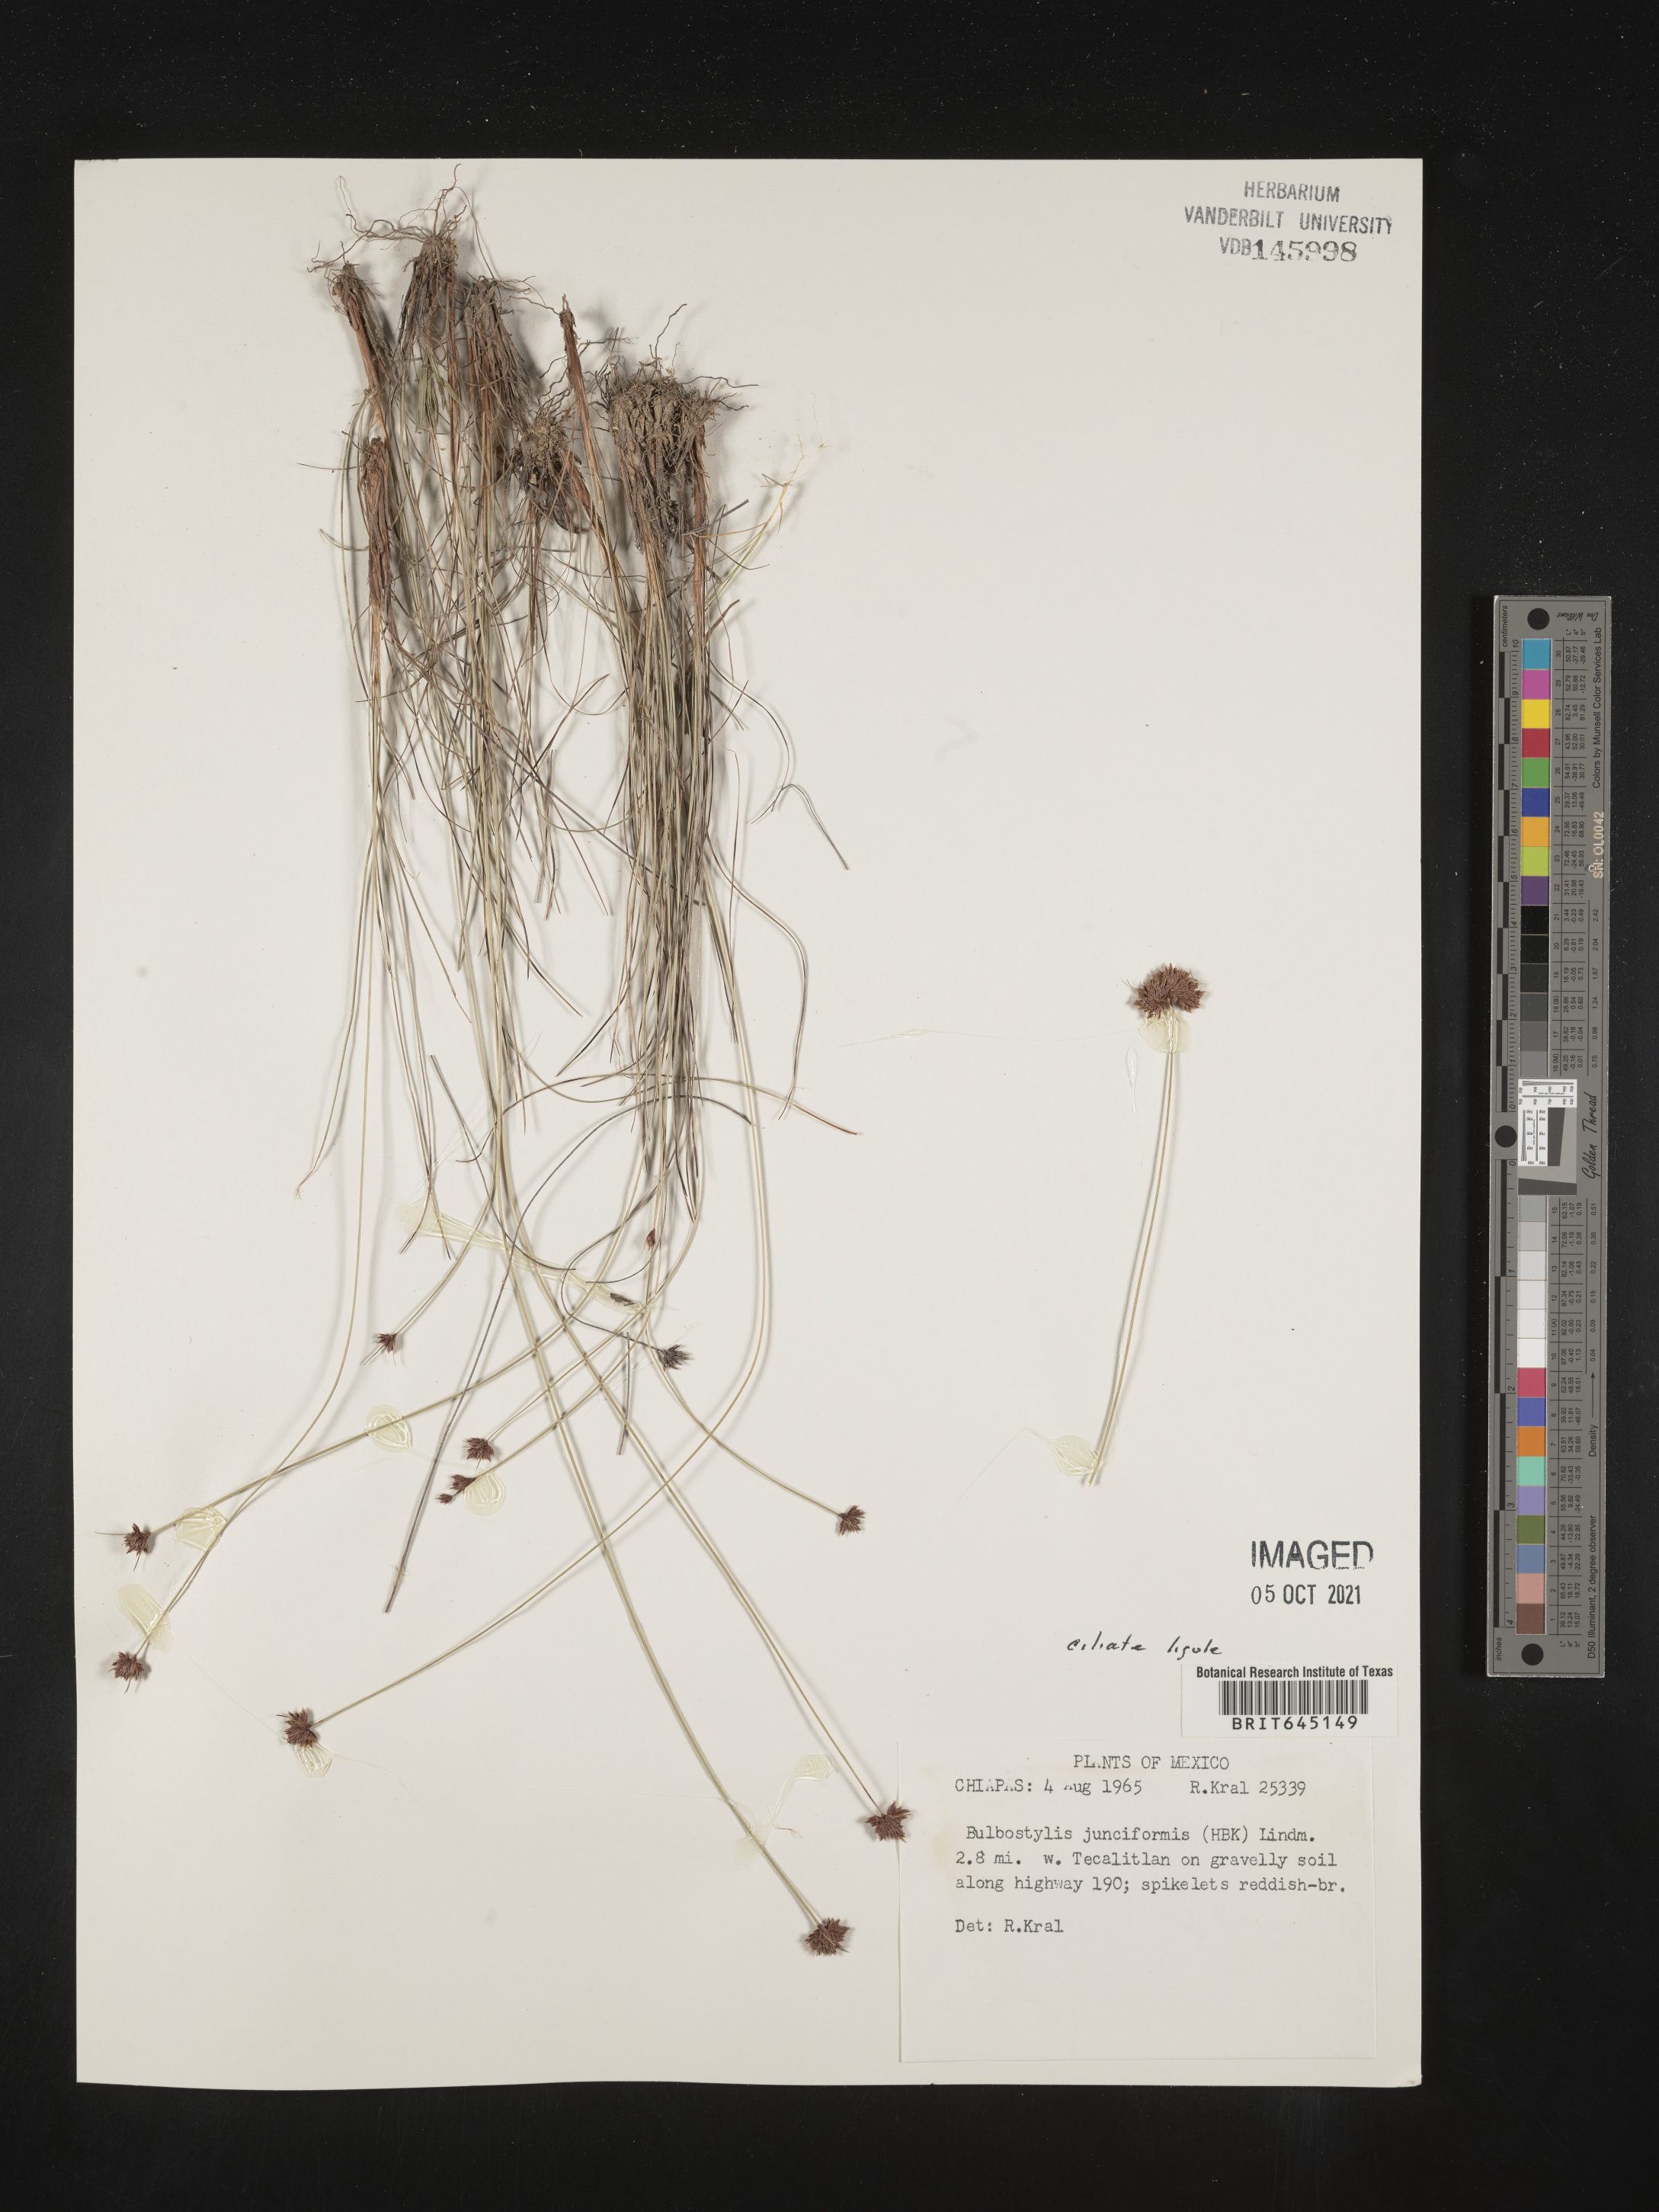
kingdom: Plantae
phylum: Tracheophyta
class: Liliopsida
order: Poales
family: Cyperaceae
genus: Bulbostylis
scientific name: Bulbostylis junciformis
